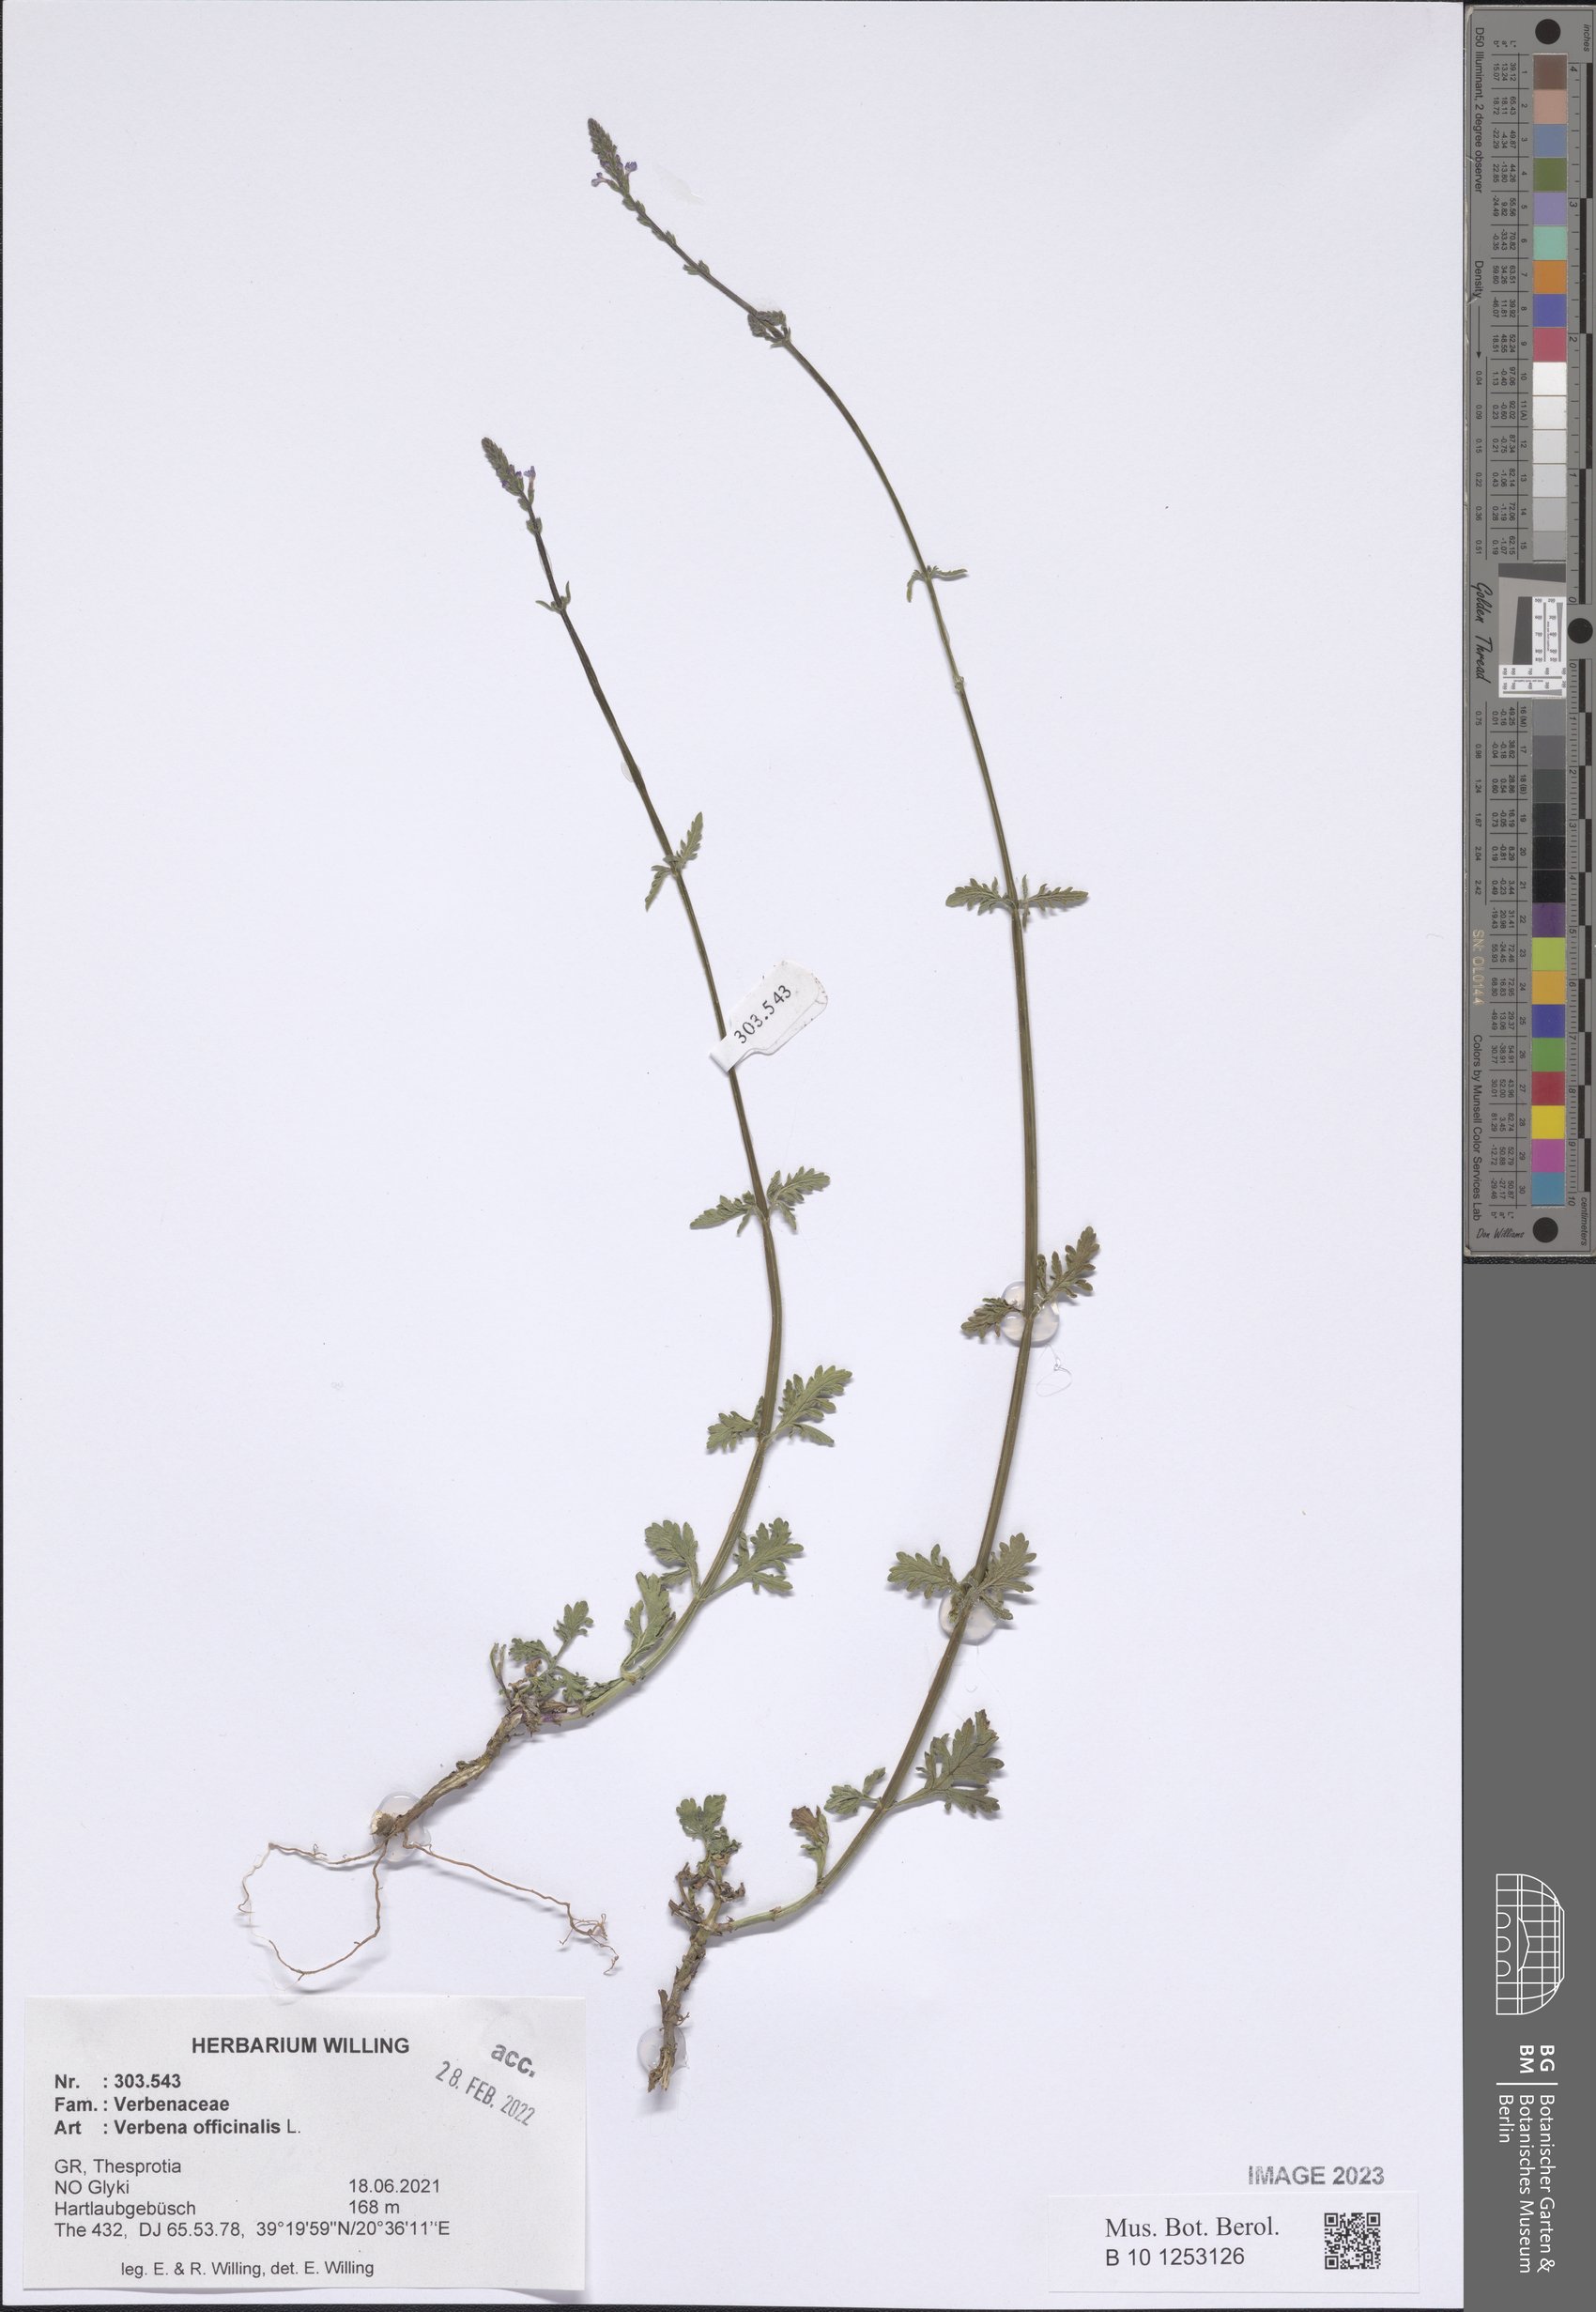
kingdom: Plantae
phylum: Tracheophyta
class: Magnoliopsida
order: Lamiales
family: Verbenaceae
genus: Verbena
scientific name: Verbena officinalis
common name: Vervain
